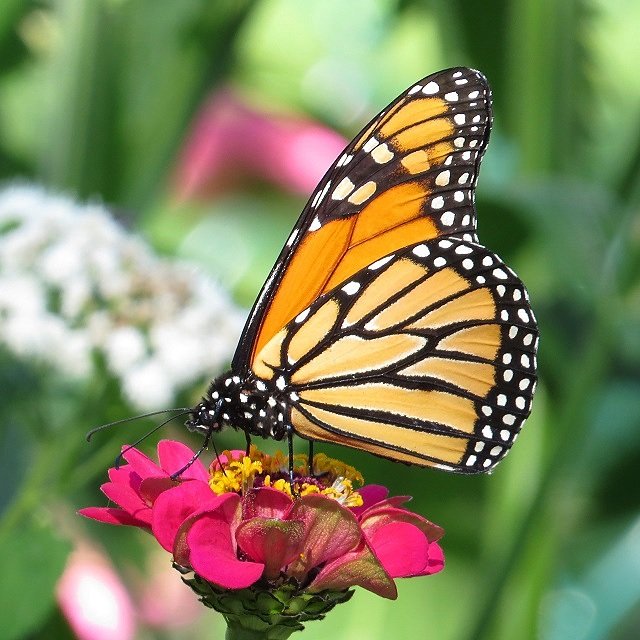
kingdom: Animalia
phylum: Arthropoda
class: Insecta
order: Lepidoptera
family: Nymphalidae
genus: Danaus
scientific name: Danaus plexippus
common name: Monarch
